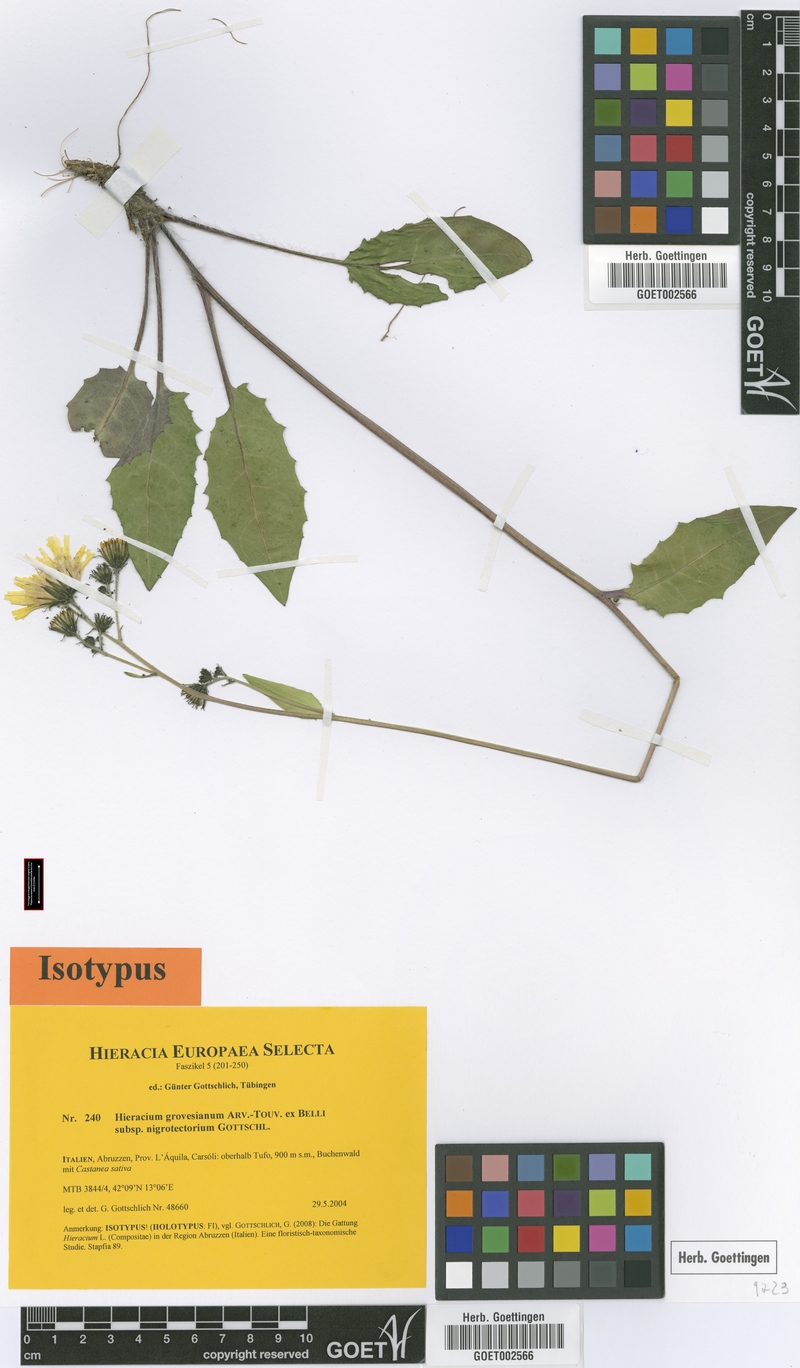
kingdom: Plantae
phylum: Tracheophyta
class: Magnoliopsida
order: Asterales
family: Asteraceae
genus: Hieracium
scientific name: Hieracium grovesianum
